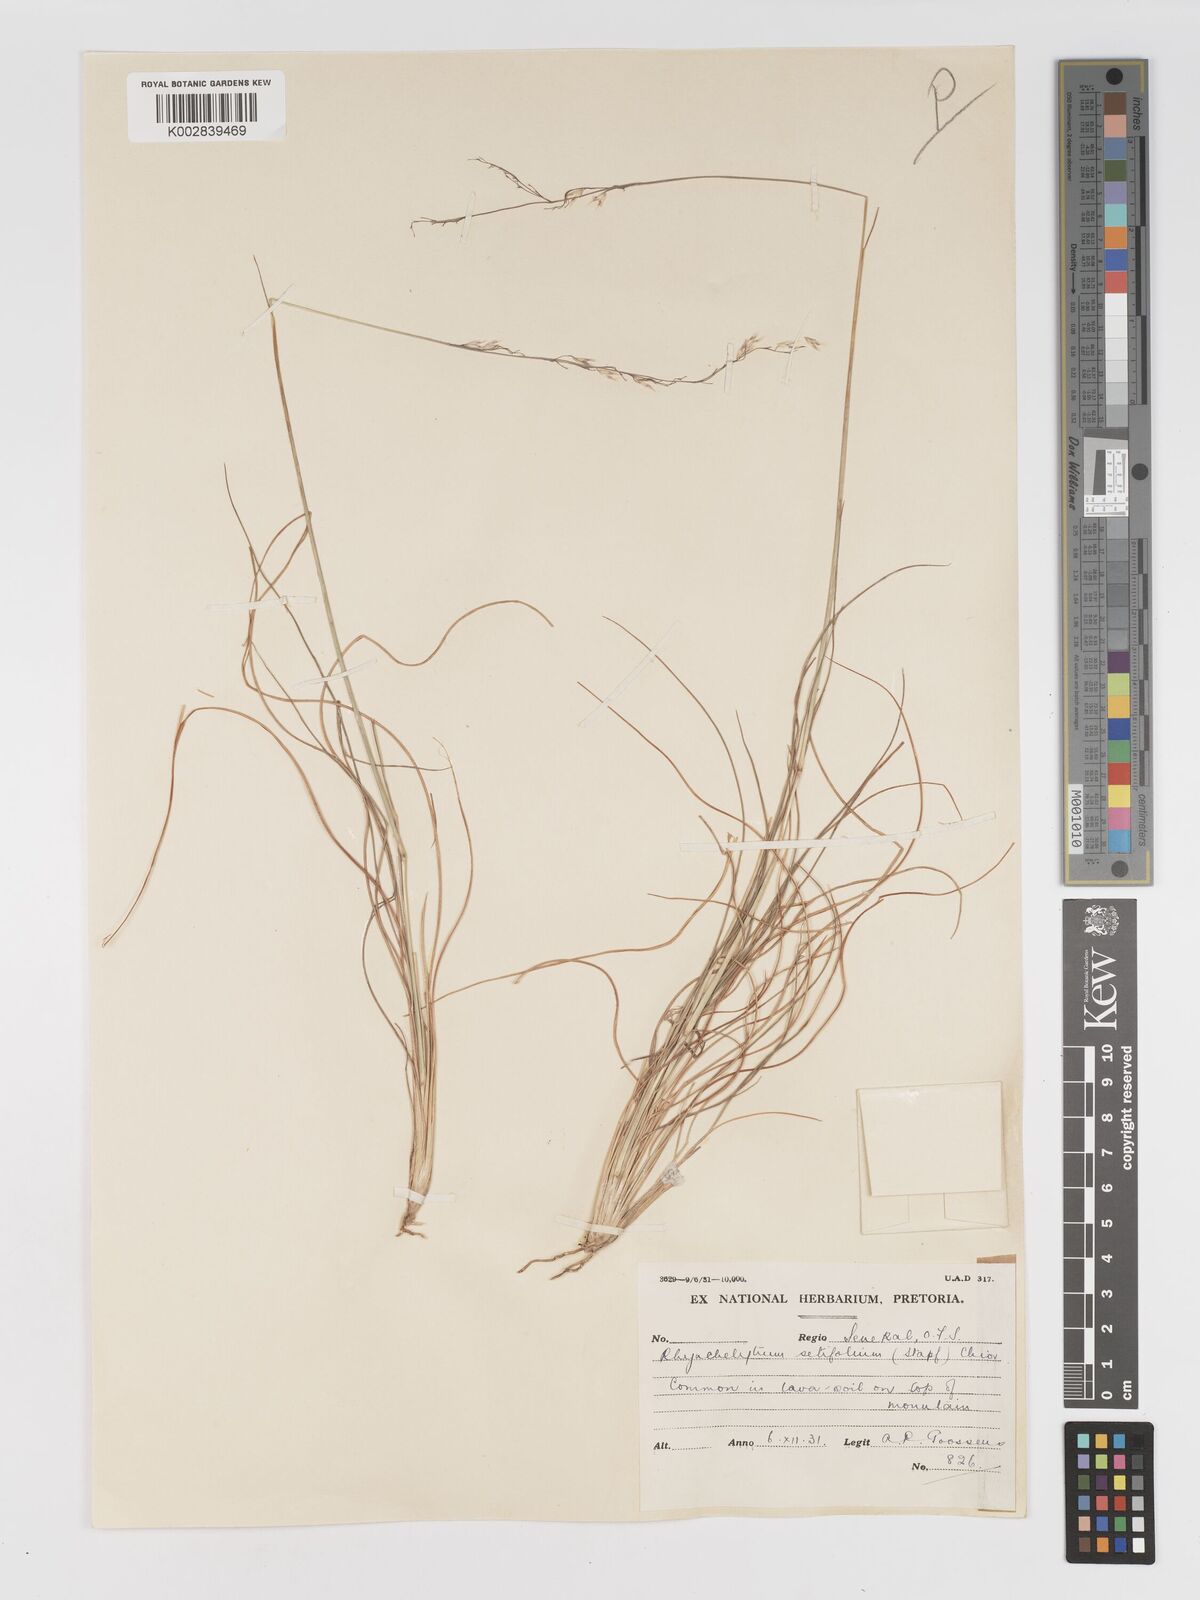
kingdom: Plantae
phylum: Tracheophyta
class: Liliopsida
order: Poales
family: Poaceae
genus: Melinis
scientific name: Melinis nerviglumis
